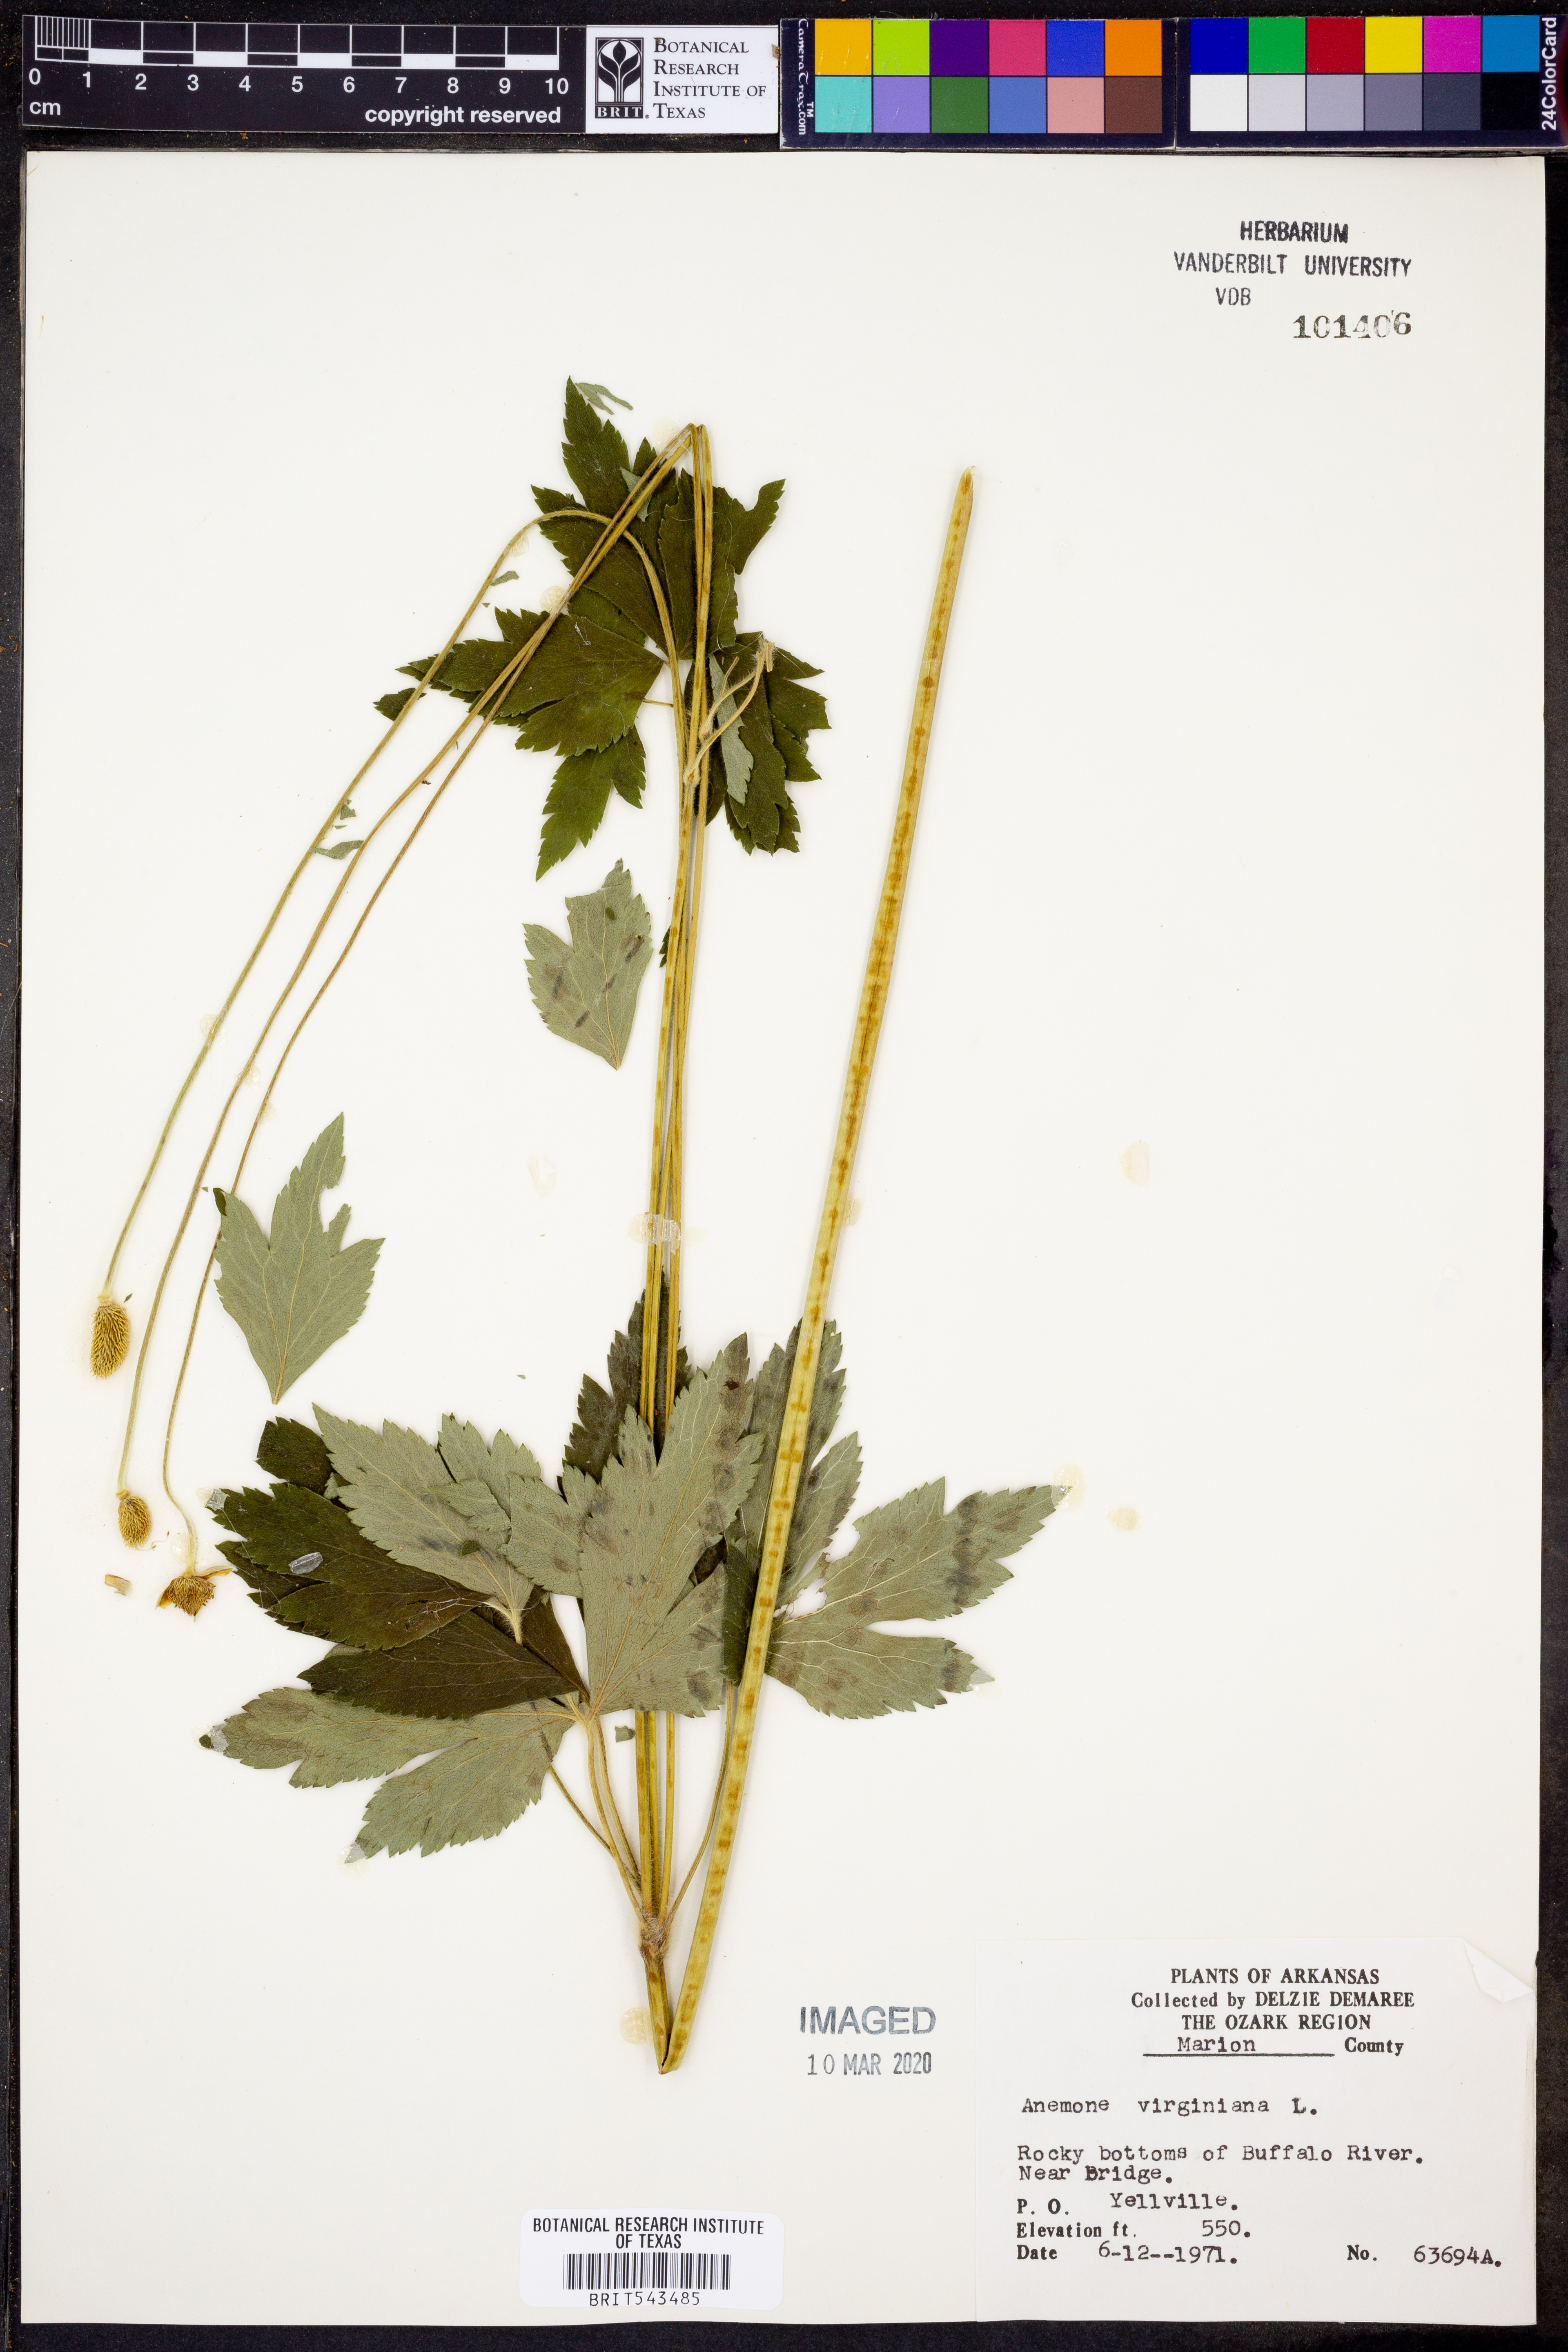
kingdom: Plantae
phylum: Tracheophyta
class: Magnoliopsida
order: Ranunculales
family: Ranunculaceae
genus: Anemone
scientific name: Anemone virginiana
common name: Tall anemone
